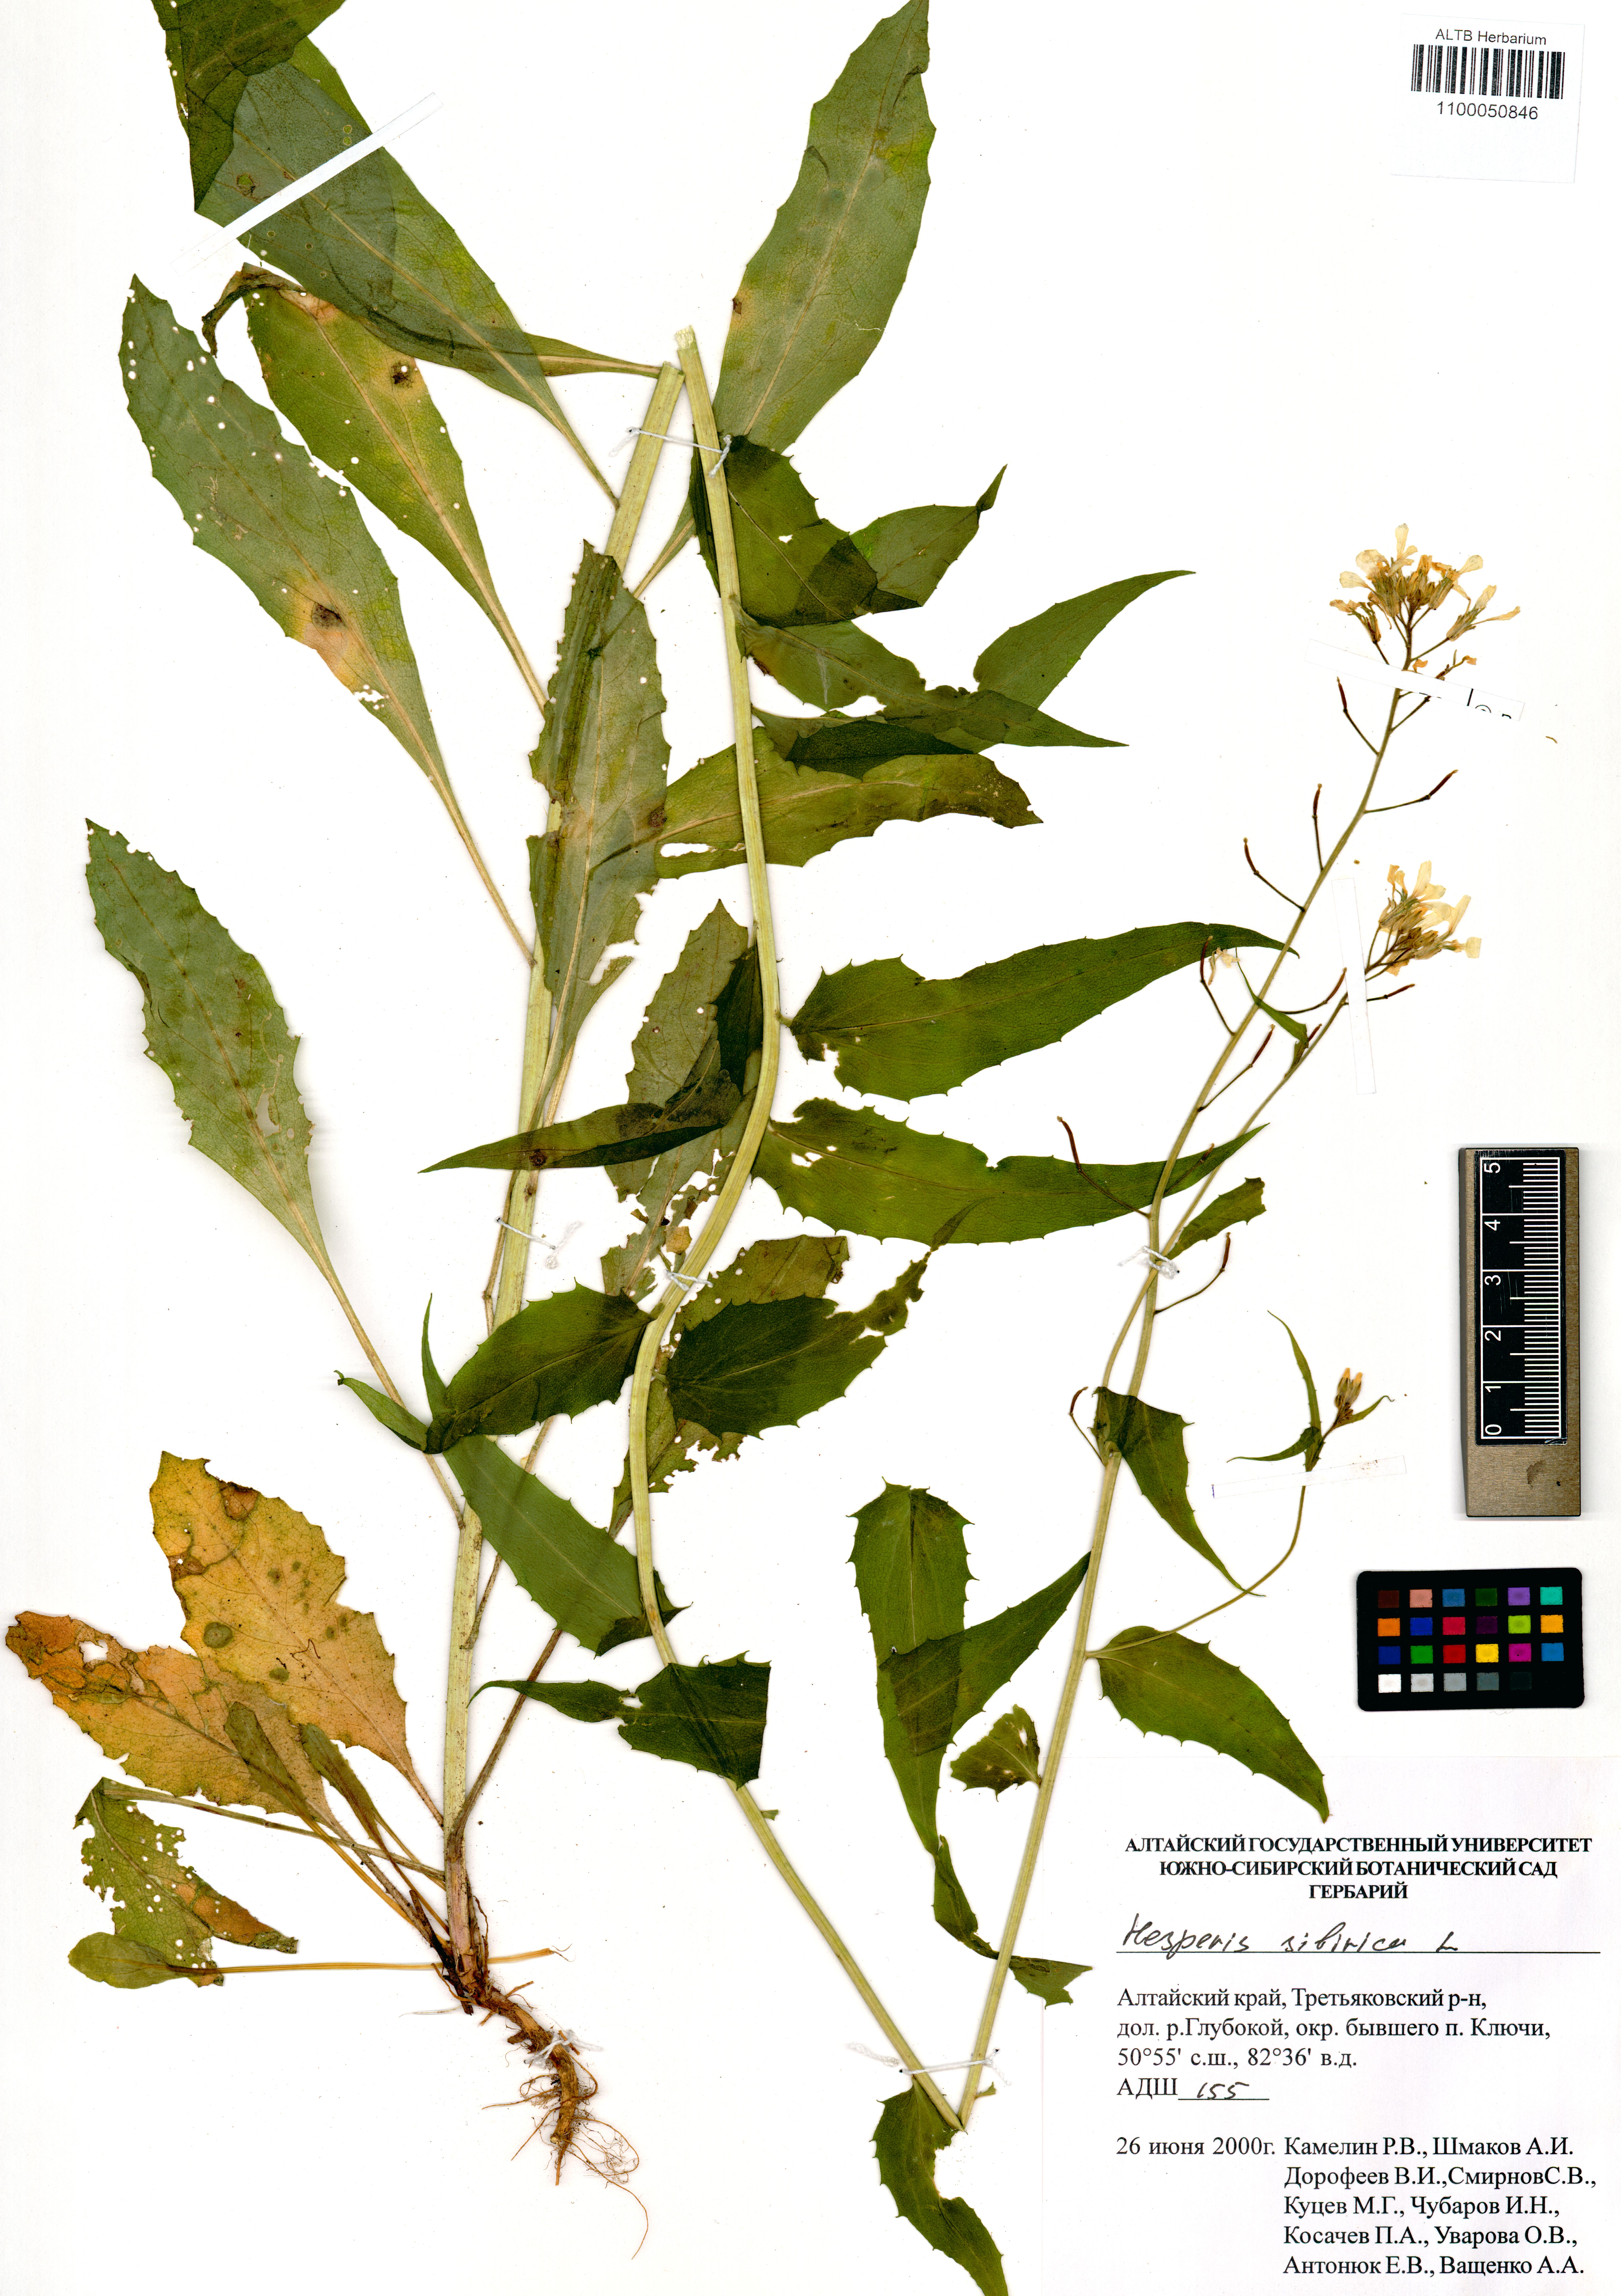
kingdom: Plantae
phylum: Tracheophyta
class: Magnoliopsida
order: Brassicales
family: Brassicaceae
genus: Hesperis
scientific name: Hesperis sibirica
